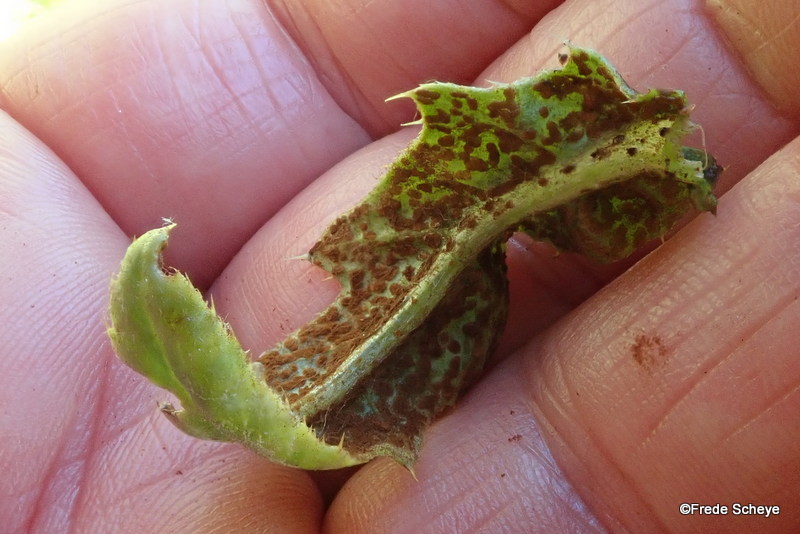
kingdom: Fungi
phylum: Basidiomycota
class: Pucciniomycetes
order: Pucciniales
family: Pucciniaceae
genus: Puccinia
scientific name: Puccinia suaveolens
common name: tidsel-tvecellerust
